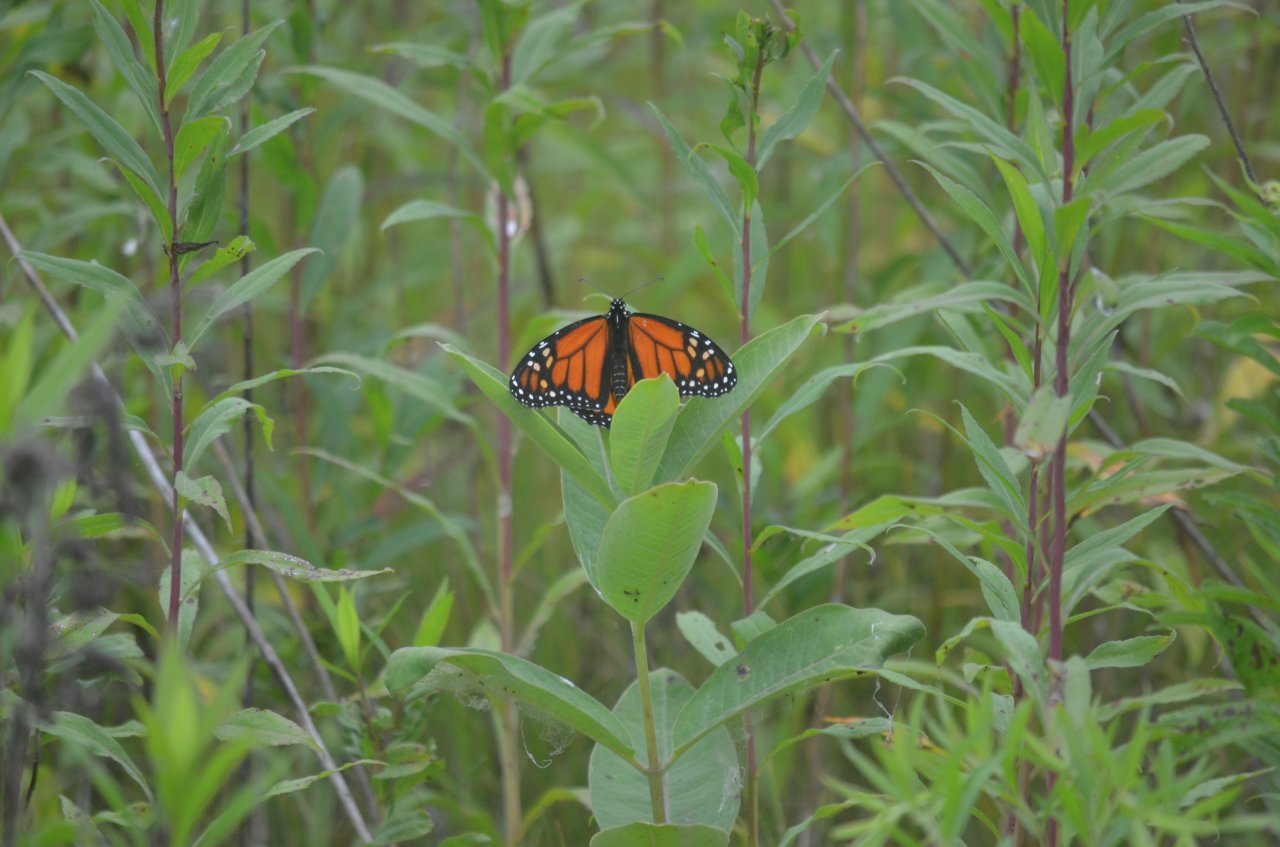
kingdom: Animalia
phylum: Arthropoda
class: Insecta
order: Lepidoptera
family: Nymphalidae
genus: Danaus
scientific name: Danaus plexippus
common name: Monarch
